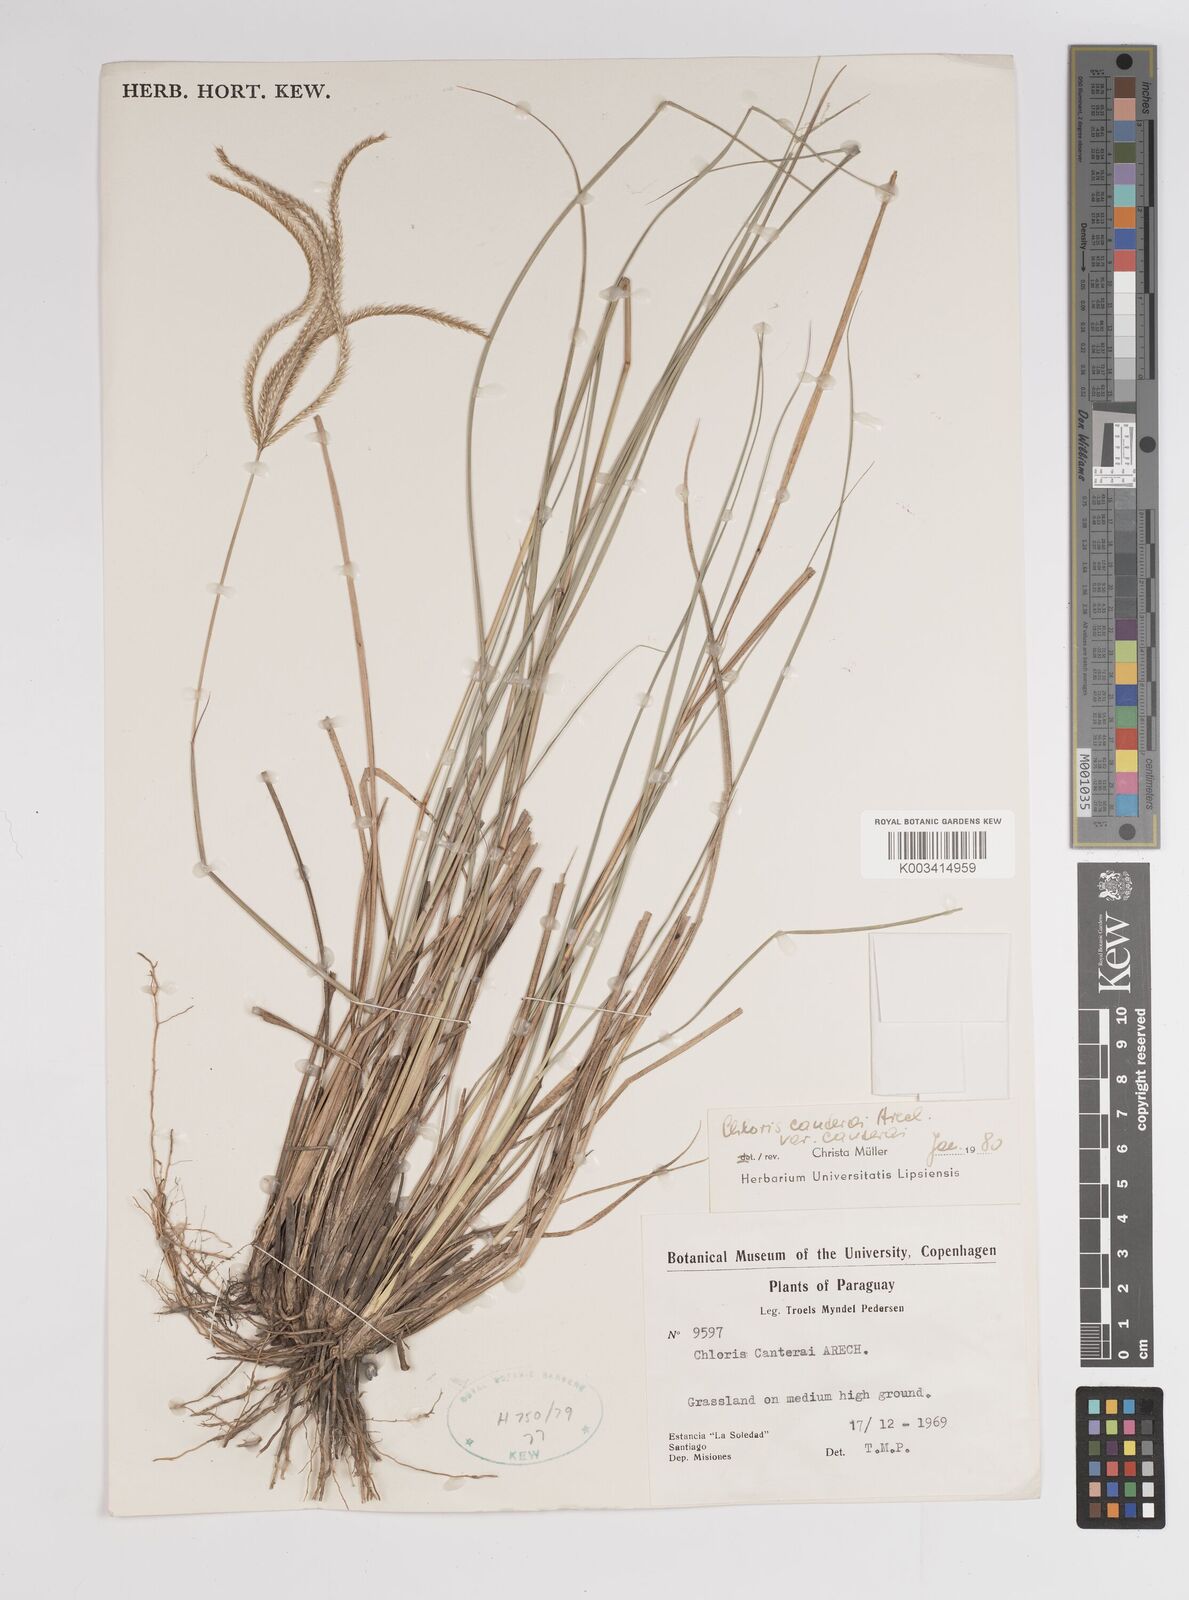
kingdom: Plantae
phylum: Tracheophyta
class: Liliopsida
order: Poales
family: Poaceae
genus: Stapfochloa
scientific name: Stapfochloa canterae
